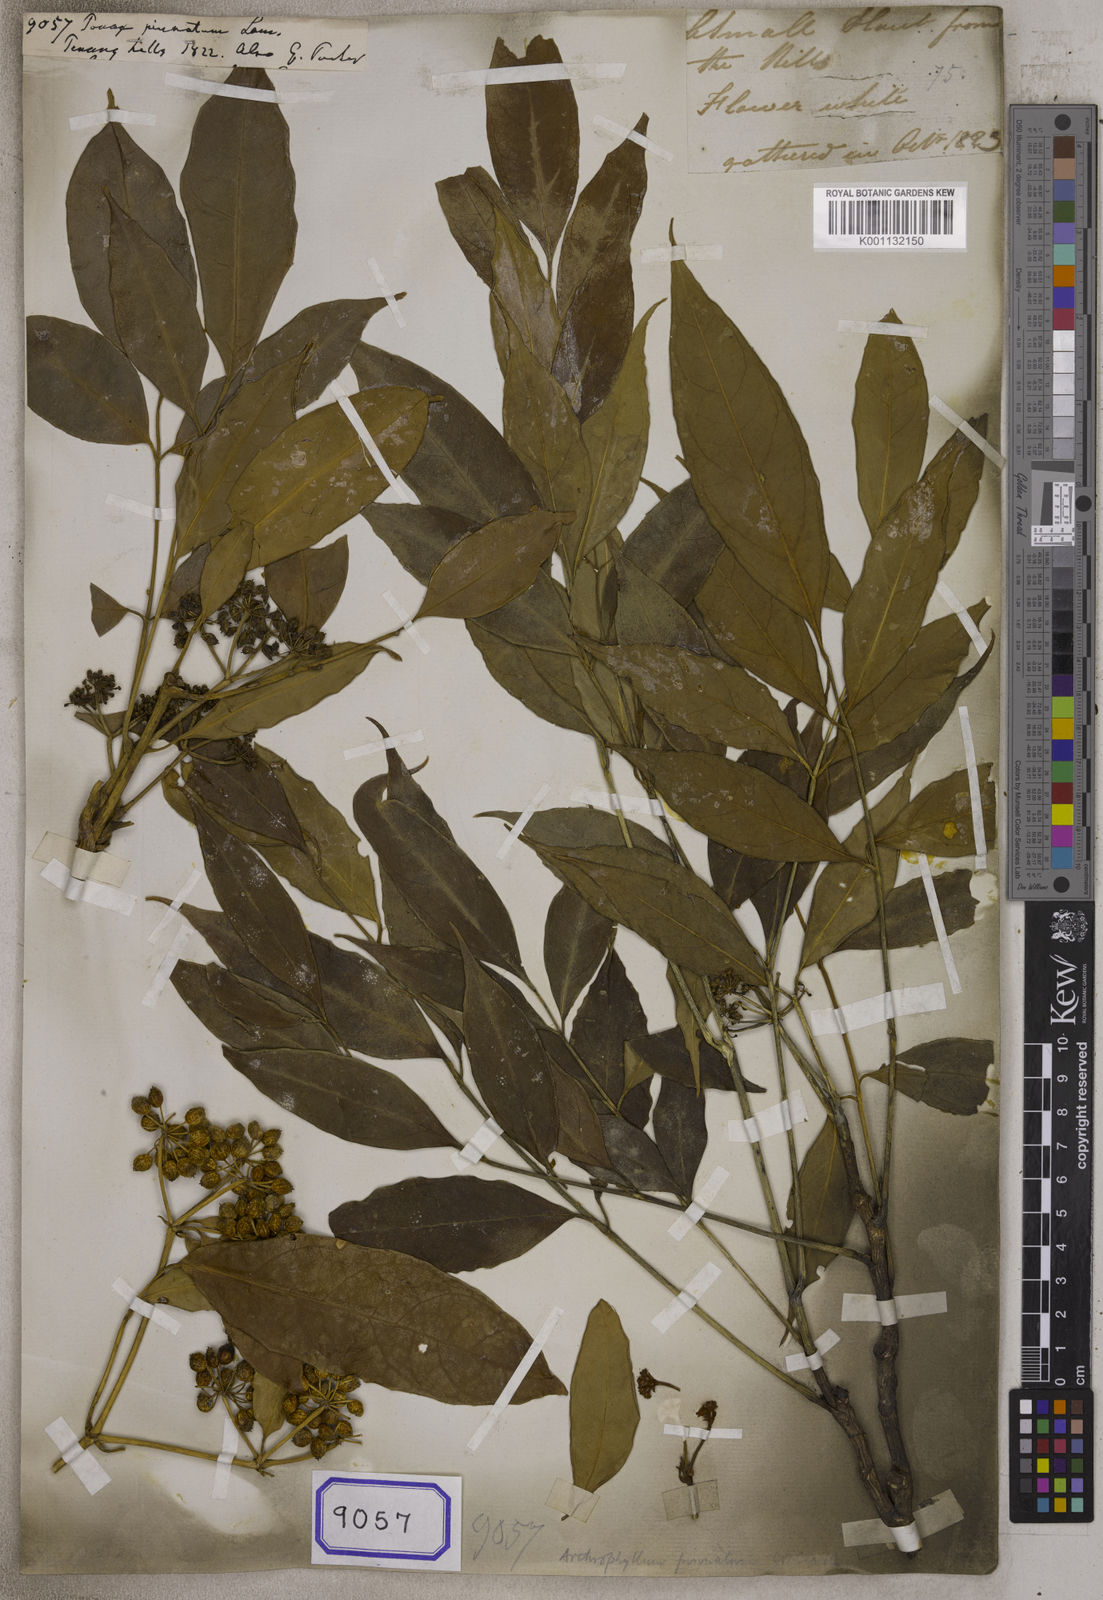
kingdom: Plantae
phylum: Tracheophyta
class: Magnoliopsida
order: Apiales
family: Araliaceae
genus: Polyscias
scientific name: Polyscias cumingiana
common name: Fern-leaf aralia
